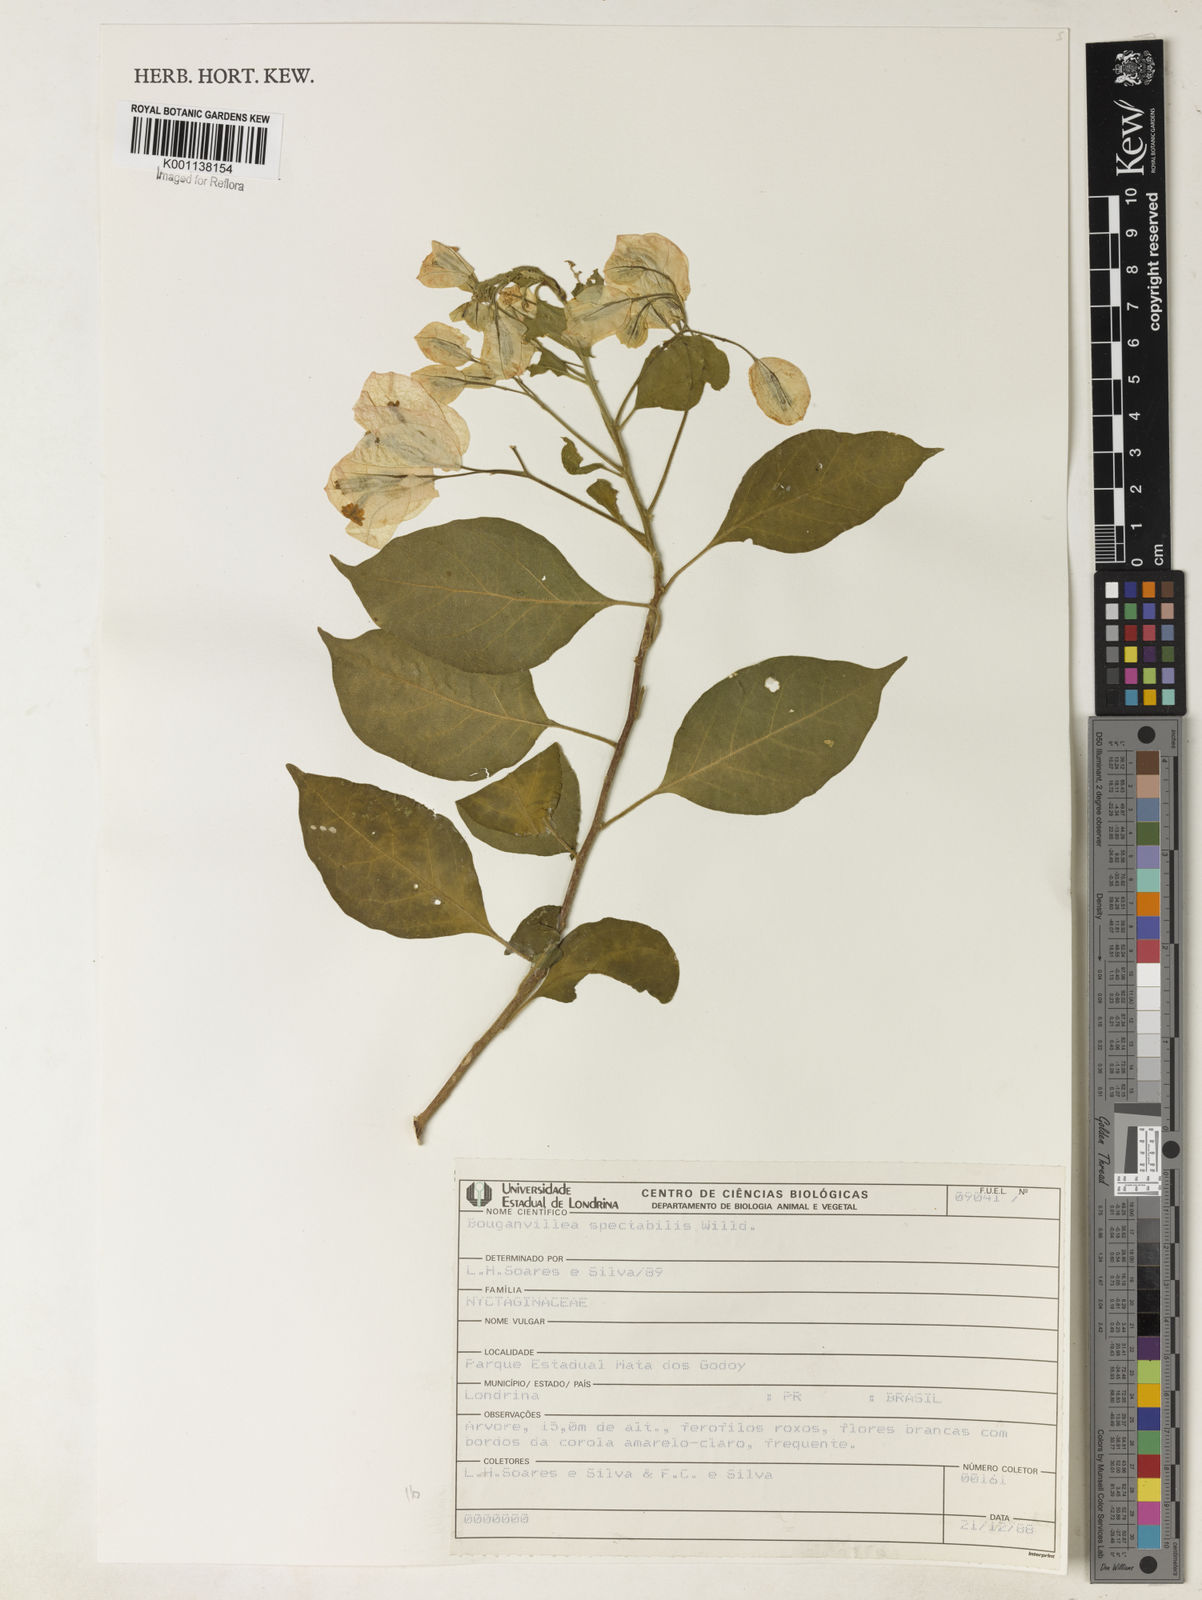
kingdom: Plantae
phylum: Tracheophyta
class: Magnoliopsida
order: Caryophyllales
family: Nyctaginaceae
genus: Bougainvillea
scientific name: Bougainvillea spectabilis
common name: Great bougainvillea
